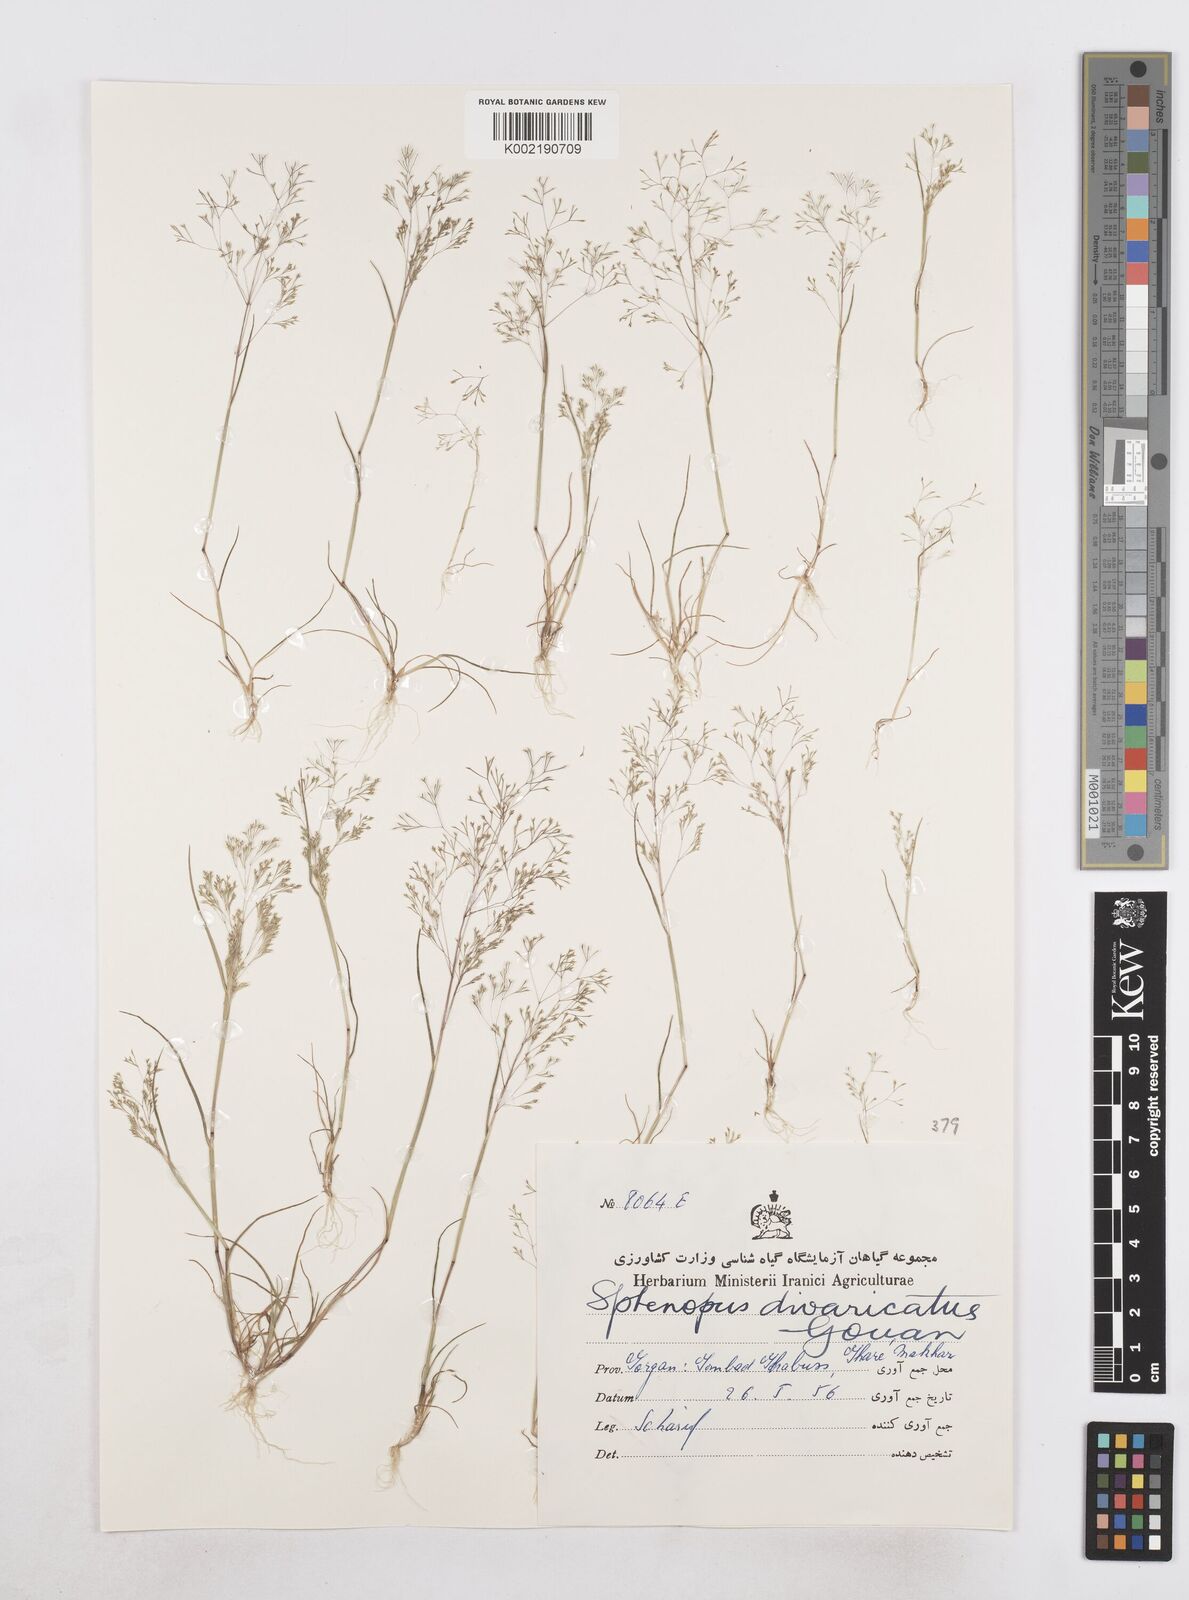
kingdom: Plantae
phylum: Tracheophyta
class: Liliopsida
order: Poales
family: Poaceae
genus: Sphenopus
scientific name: Sphenopus divaricatus
